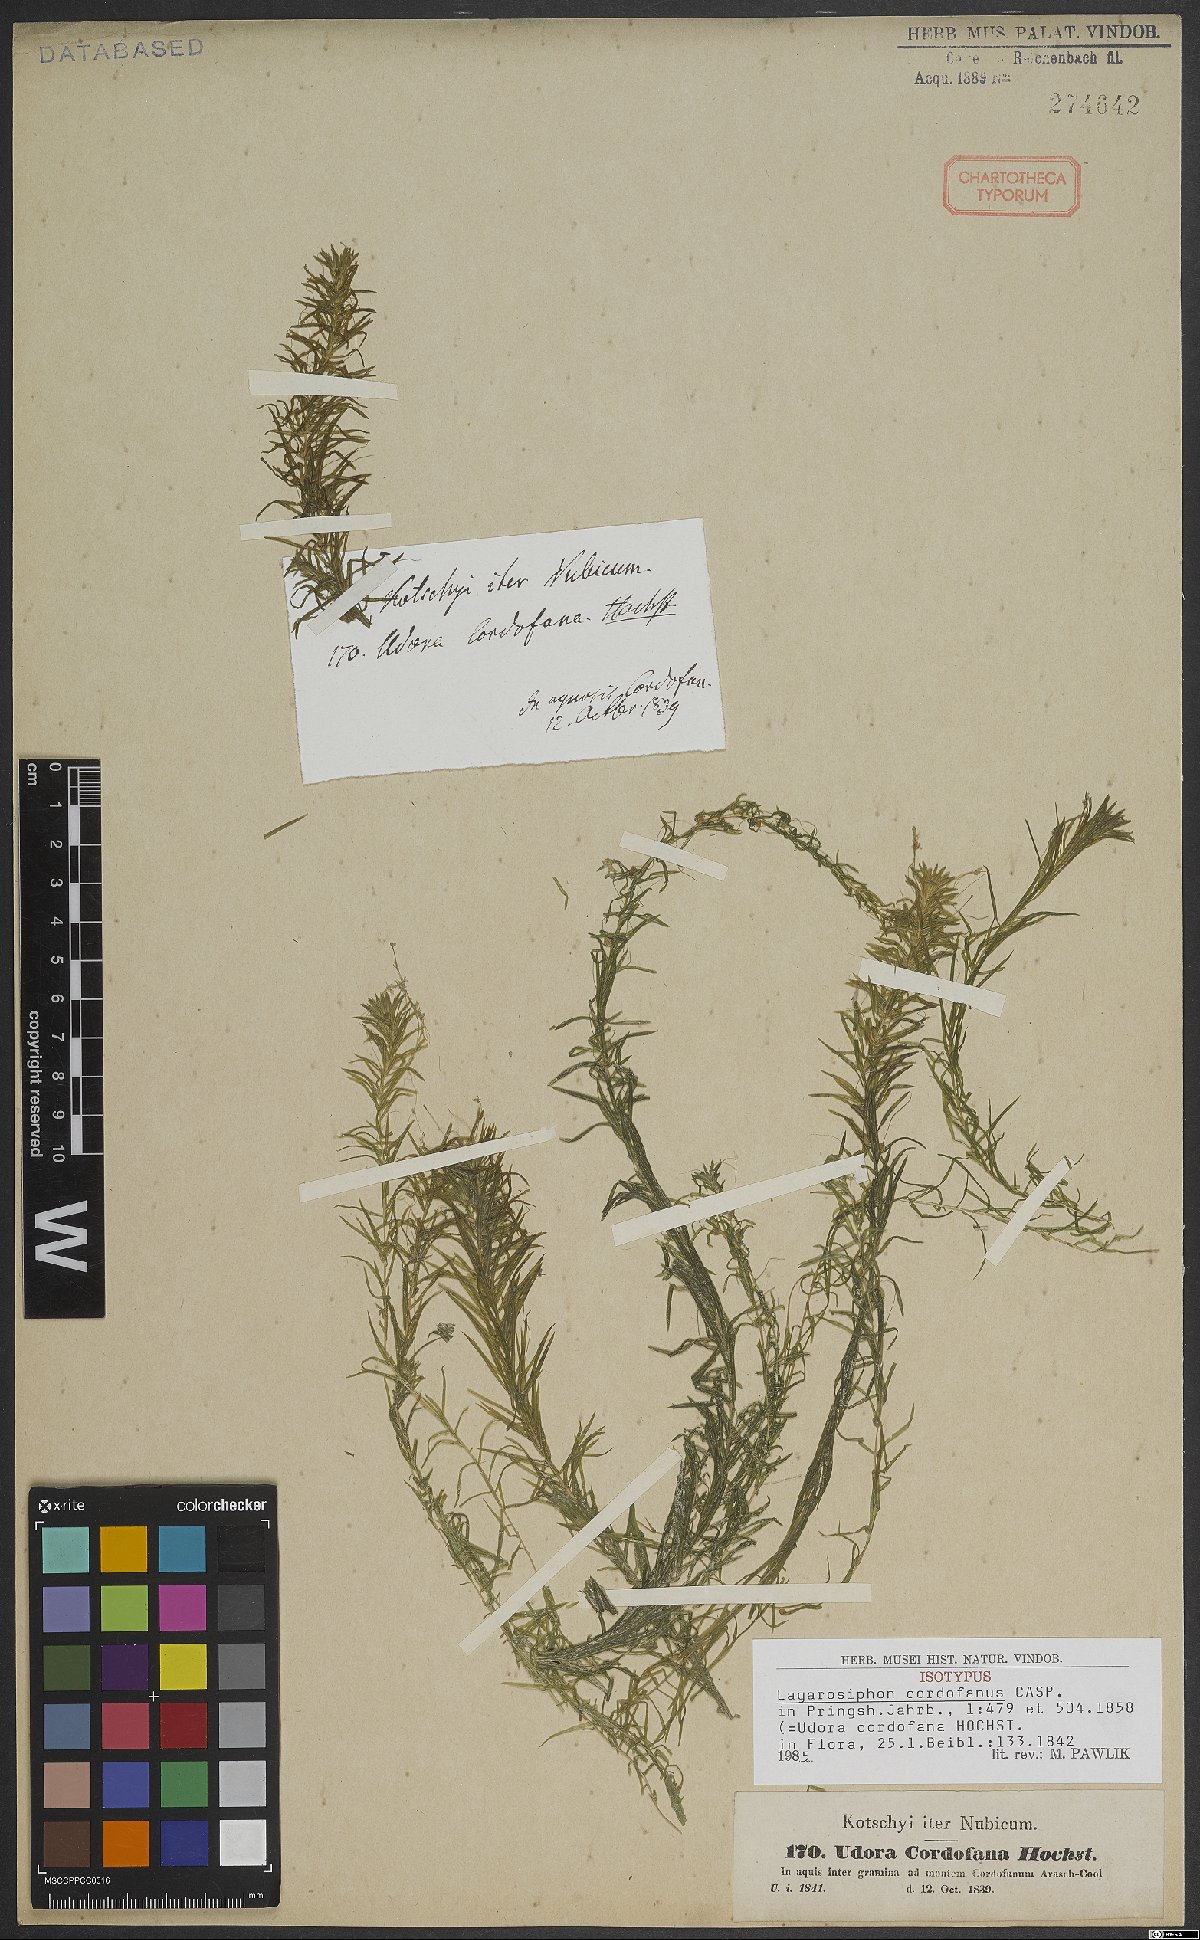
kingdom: Plantae
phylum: Tracheophyta
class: Liliopsida
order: Alismatales
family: Hydrocharitaceae
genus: Lagarosiphon
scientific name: Lagarosiphon cordofanus
